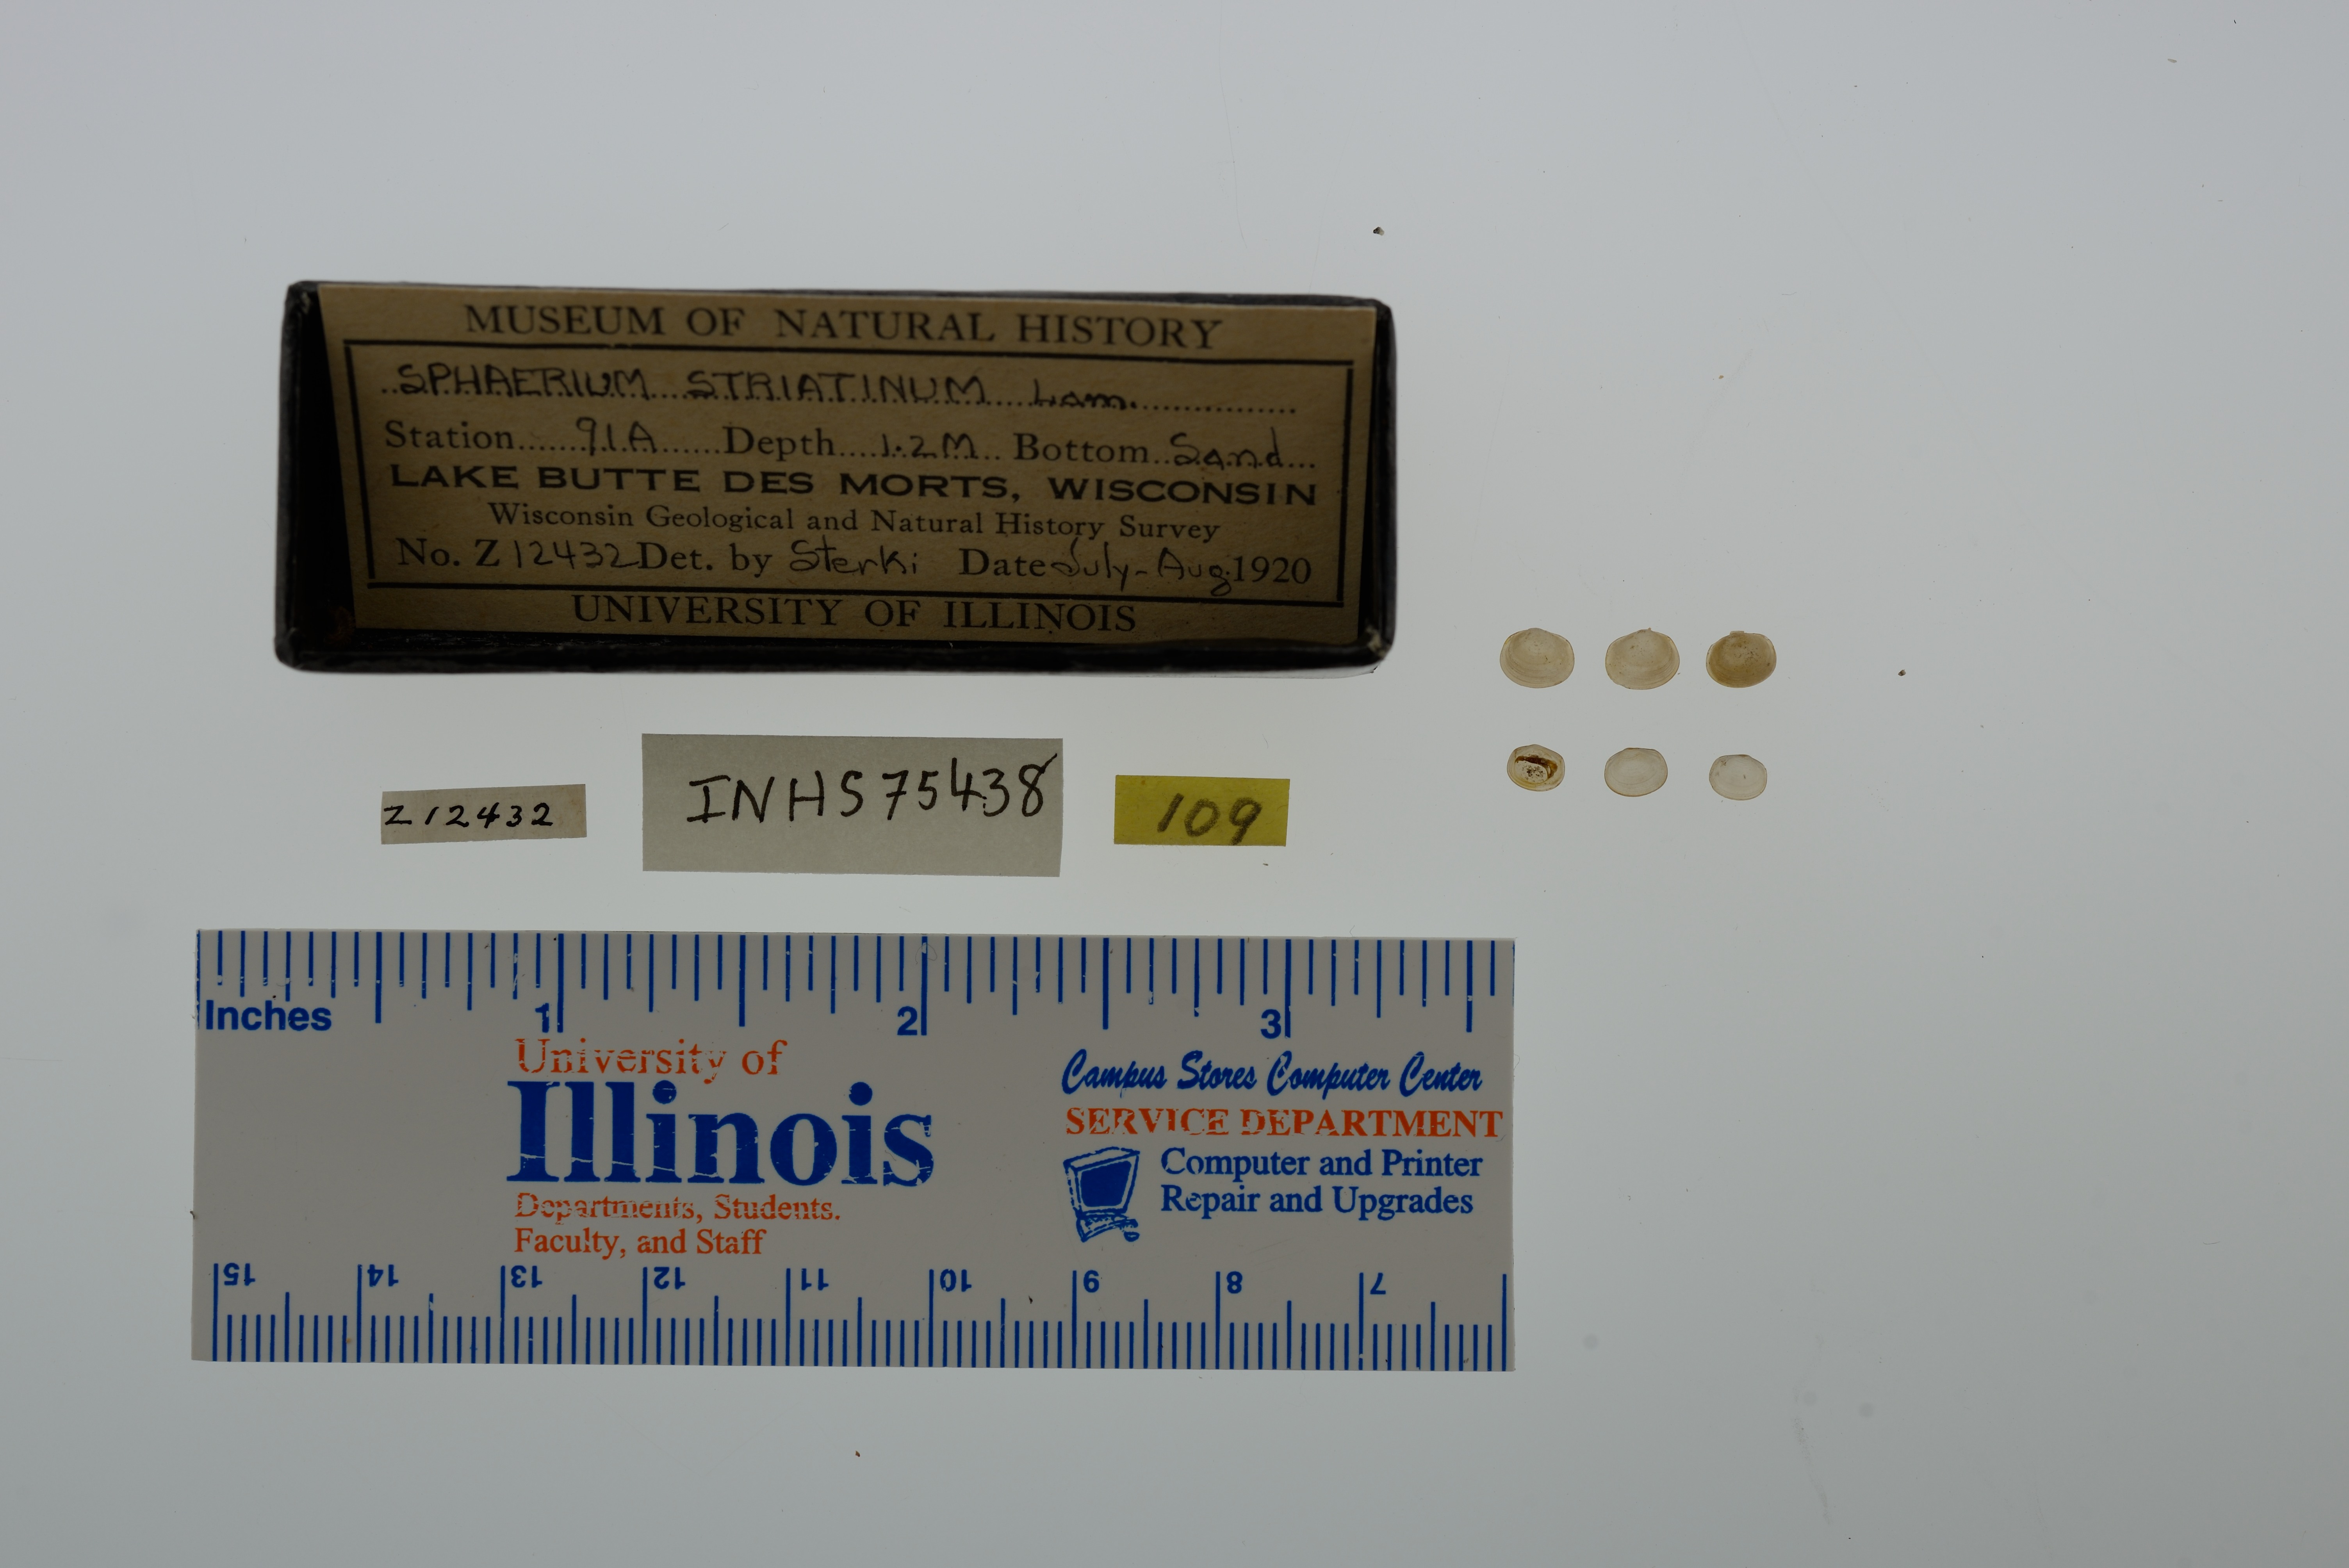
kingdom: Animalia
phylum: Mollusca
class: Bivalvia
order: Sphaeriida
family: Sphaeriidae
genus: Sphaerium
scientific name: Sphaerium striatinum
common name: Striated fingernailclam
